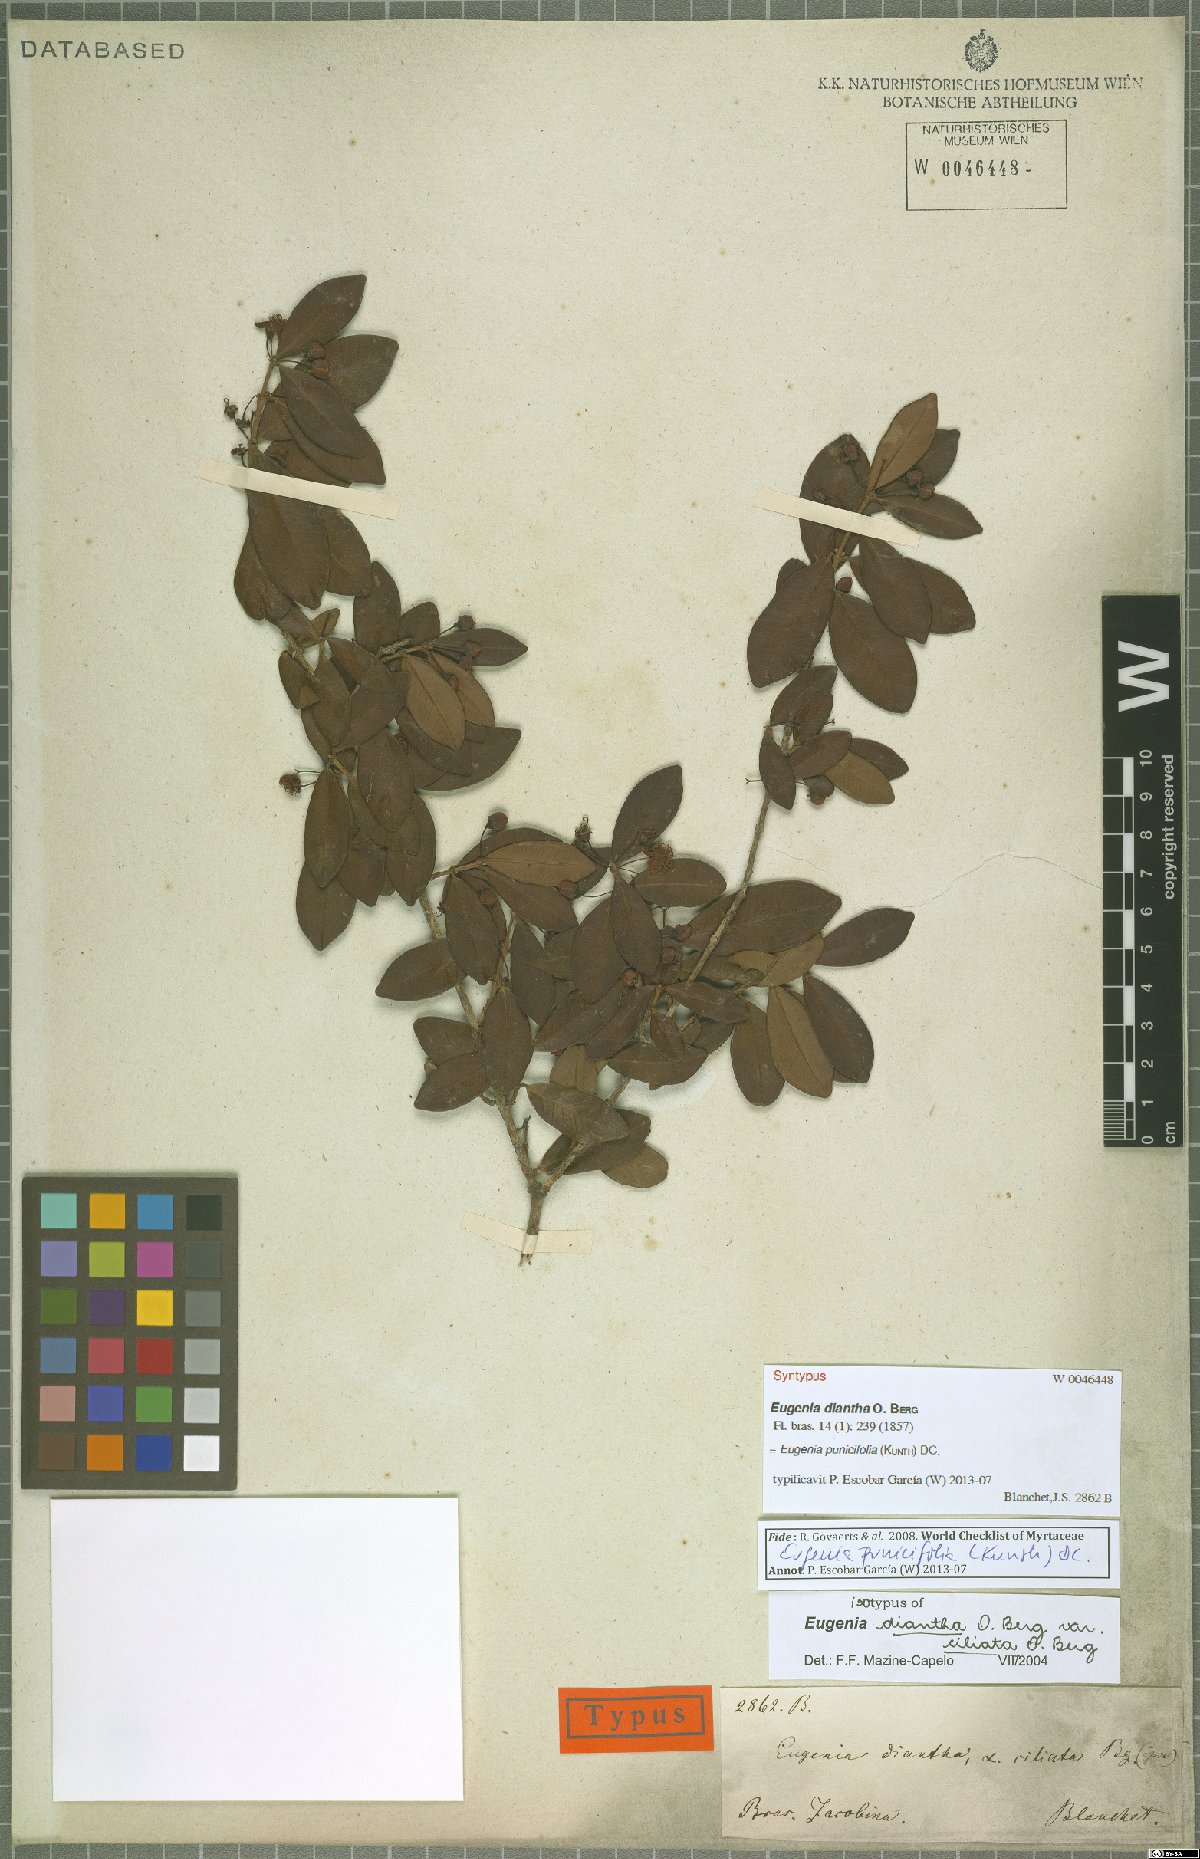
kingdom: Plantae
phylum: Tracheophyta
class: Magnoliopsida
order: Myrtales
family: Myrtaceae
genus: Eugenia
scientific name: Eugenia punicifolia
